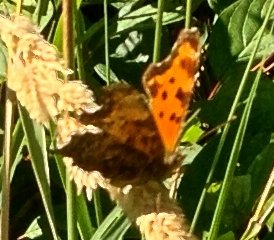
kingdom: Animalia
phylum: Arthropoda
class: Insecta
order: Lepidoptera
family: Nymphalidae
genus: Polygonia
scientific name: Polygonia progne
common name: Gray Comma
